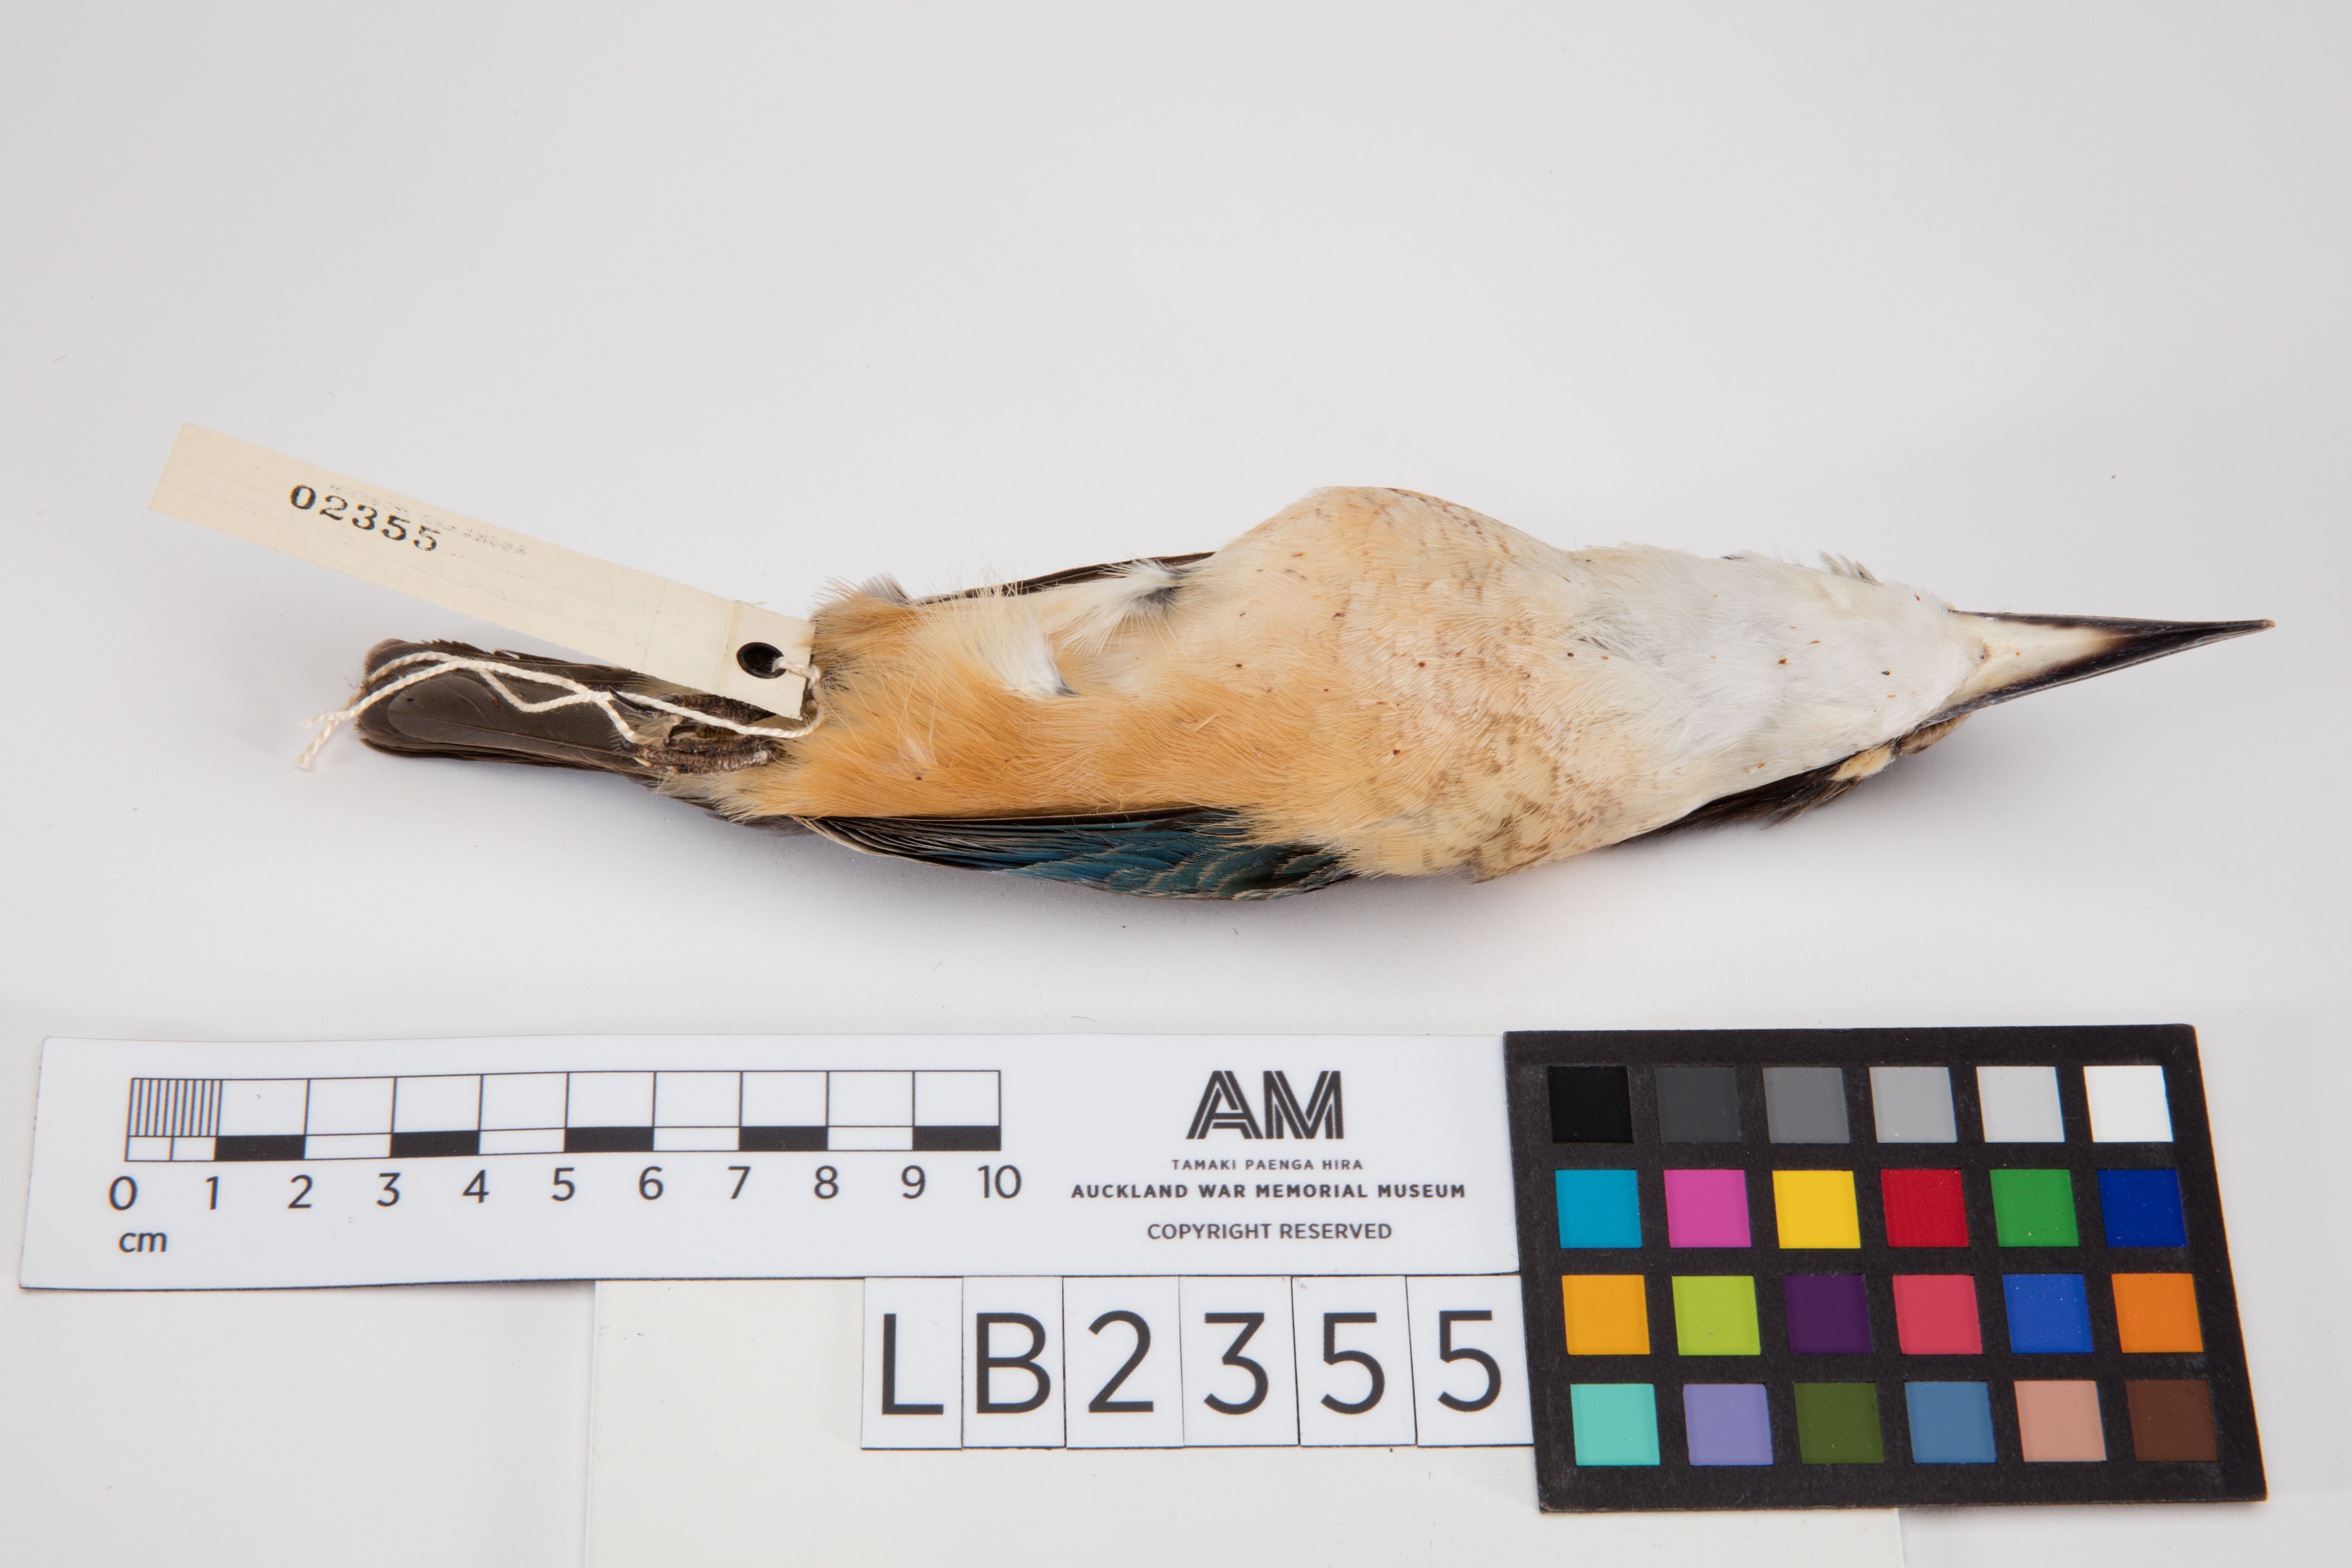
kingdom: Animalia
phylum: Chordata
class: Aves
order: Coraciiformes
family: Alcedinidae
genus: Todiramphus
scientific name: Todiramphus sanctus
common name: Sacred kingfisher
